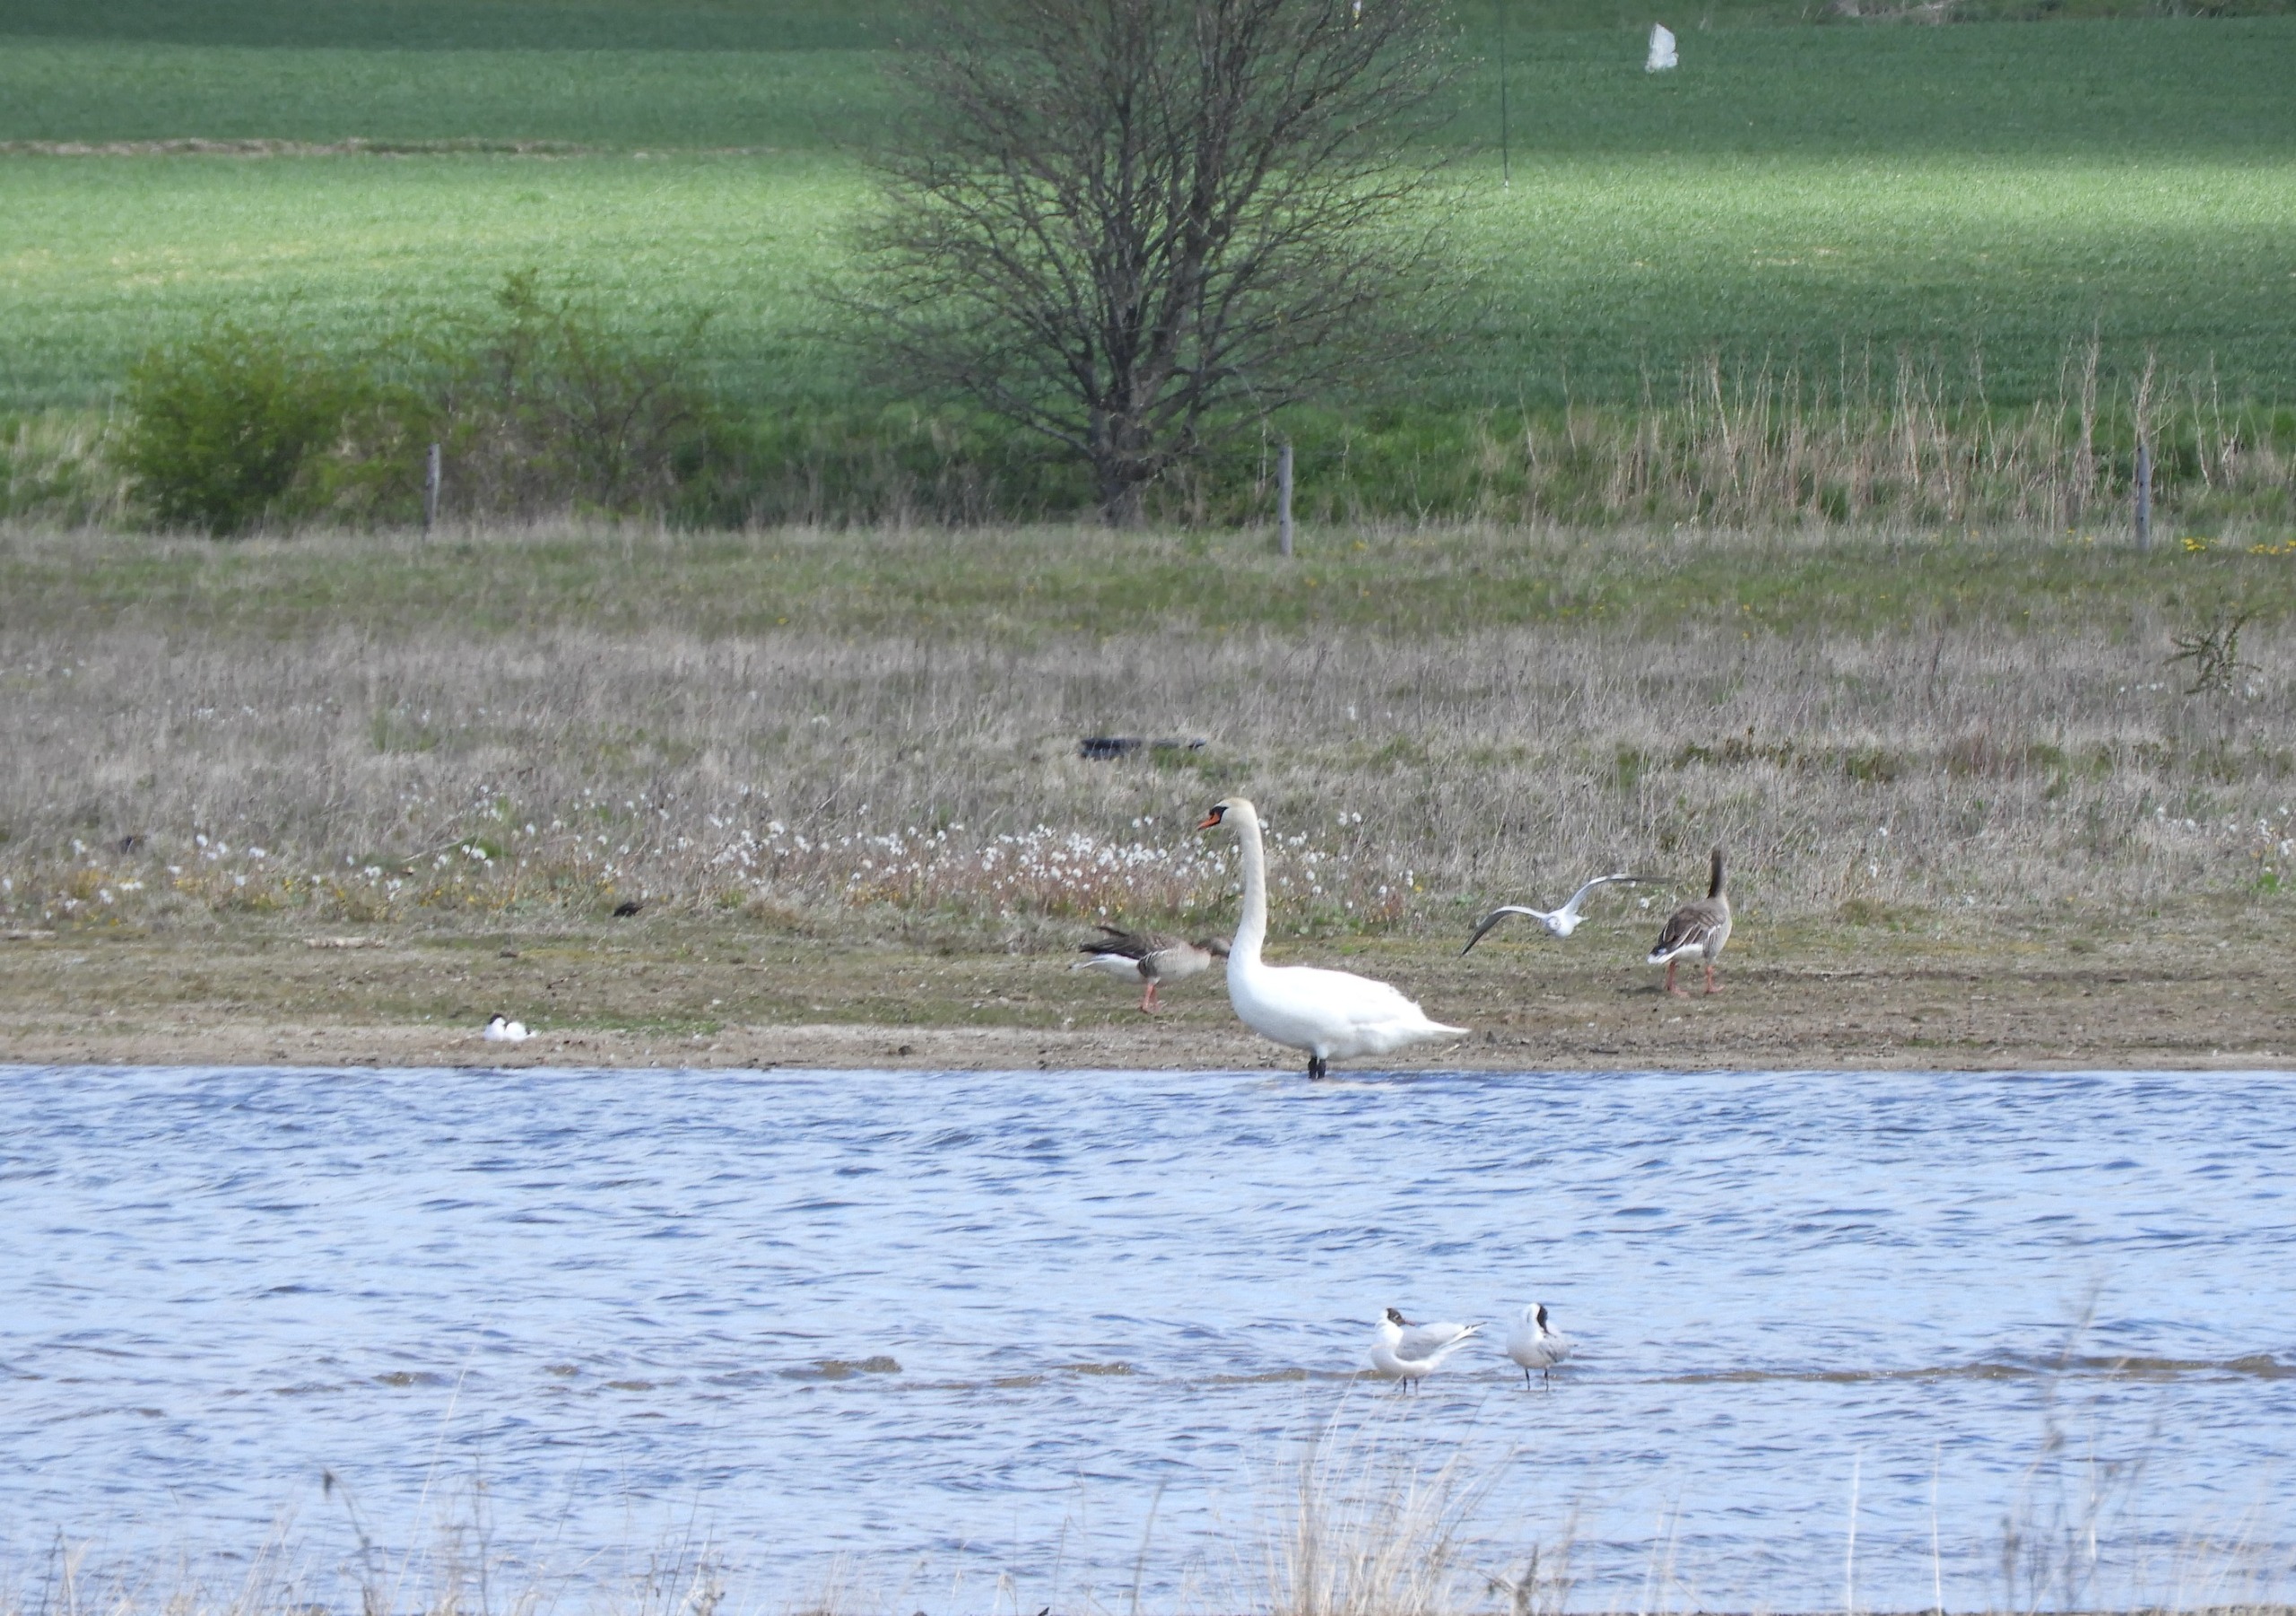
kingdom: Animalia
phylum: Chordata
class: Aves
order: Anseriformes
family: Anatidae
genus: Cygnus
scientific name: Cygnus olor
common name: Knopsvane
